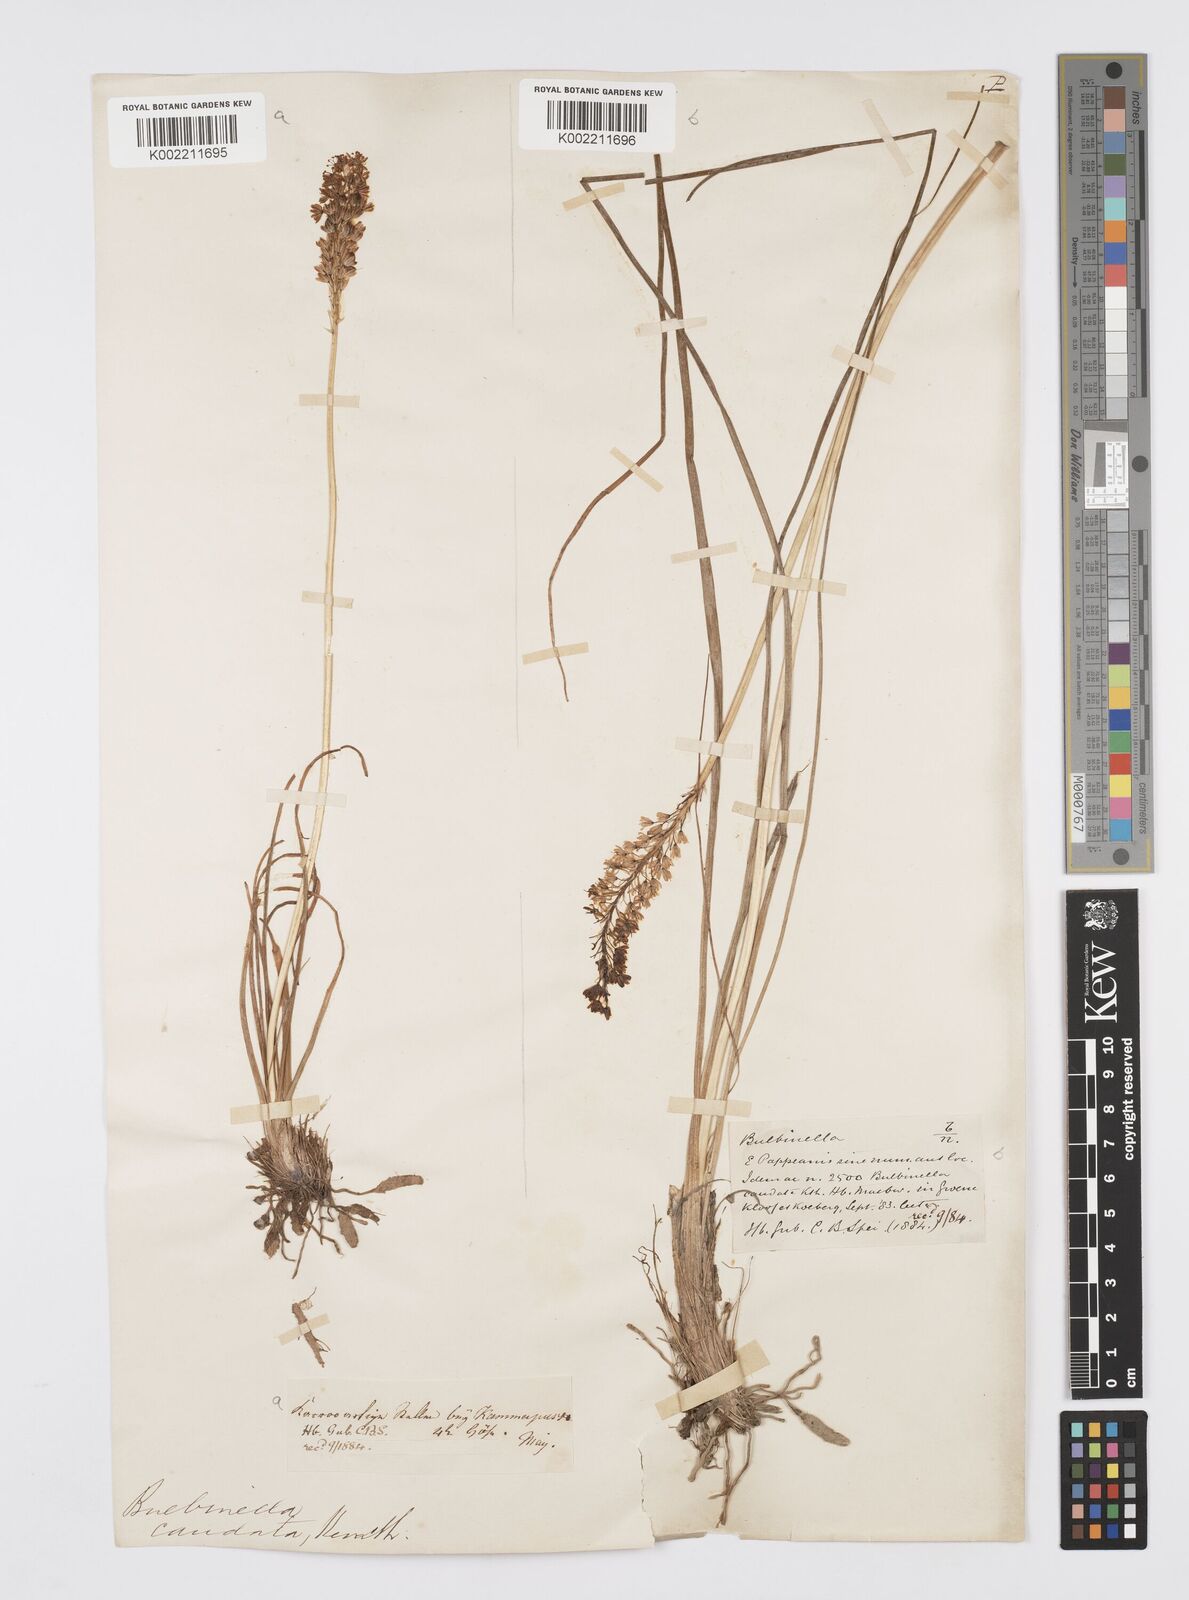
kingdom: Plantae
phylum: Tracheophyta
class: Liliopsida
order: Asparagales
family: Asphodelaceae
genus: Bulbinella
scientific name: Bulbinella cauda-felis
